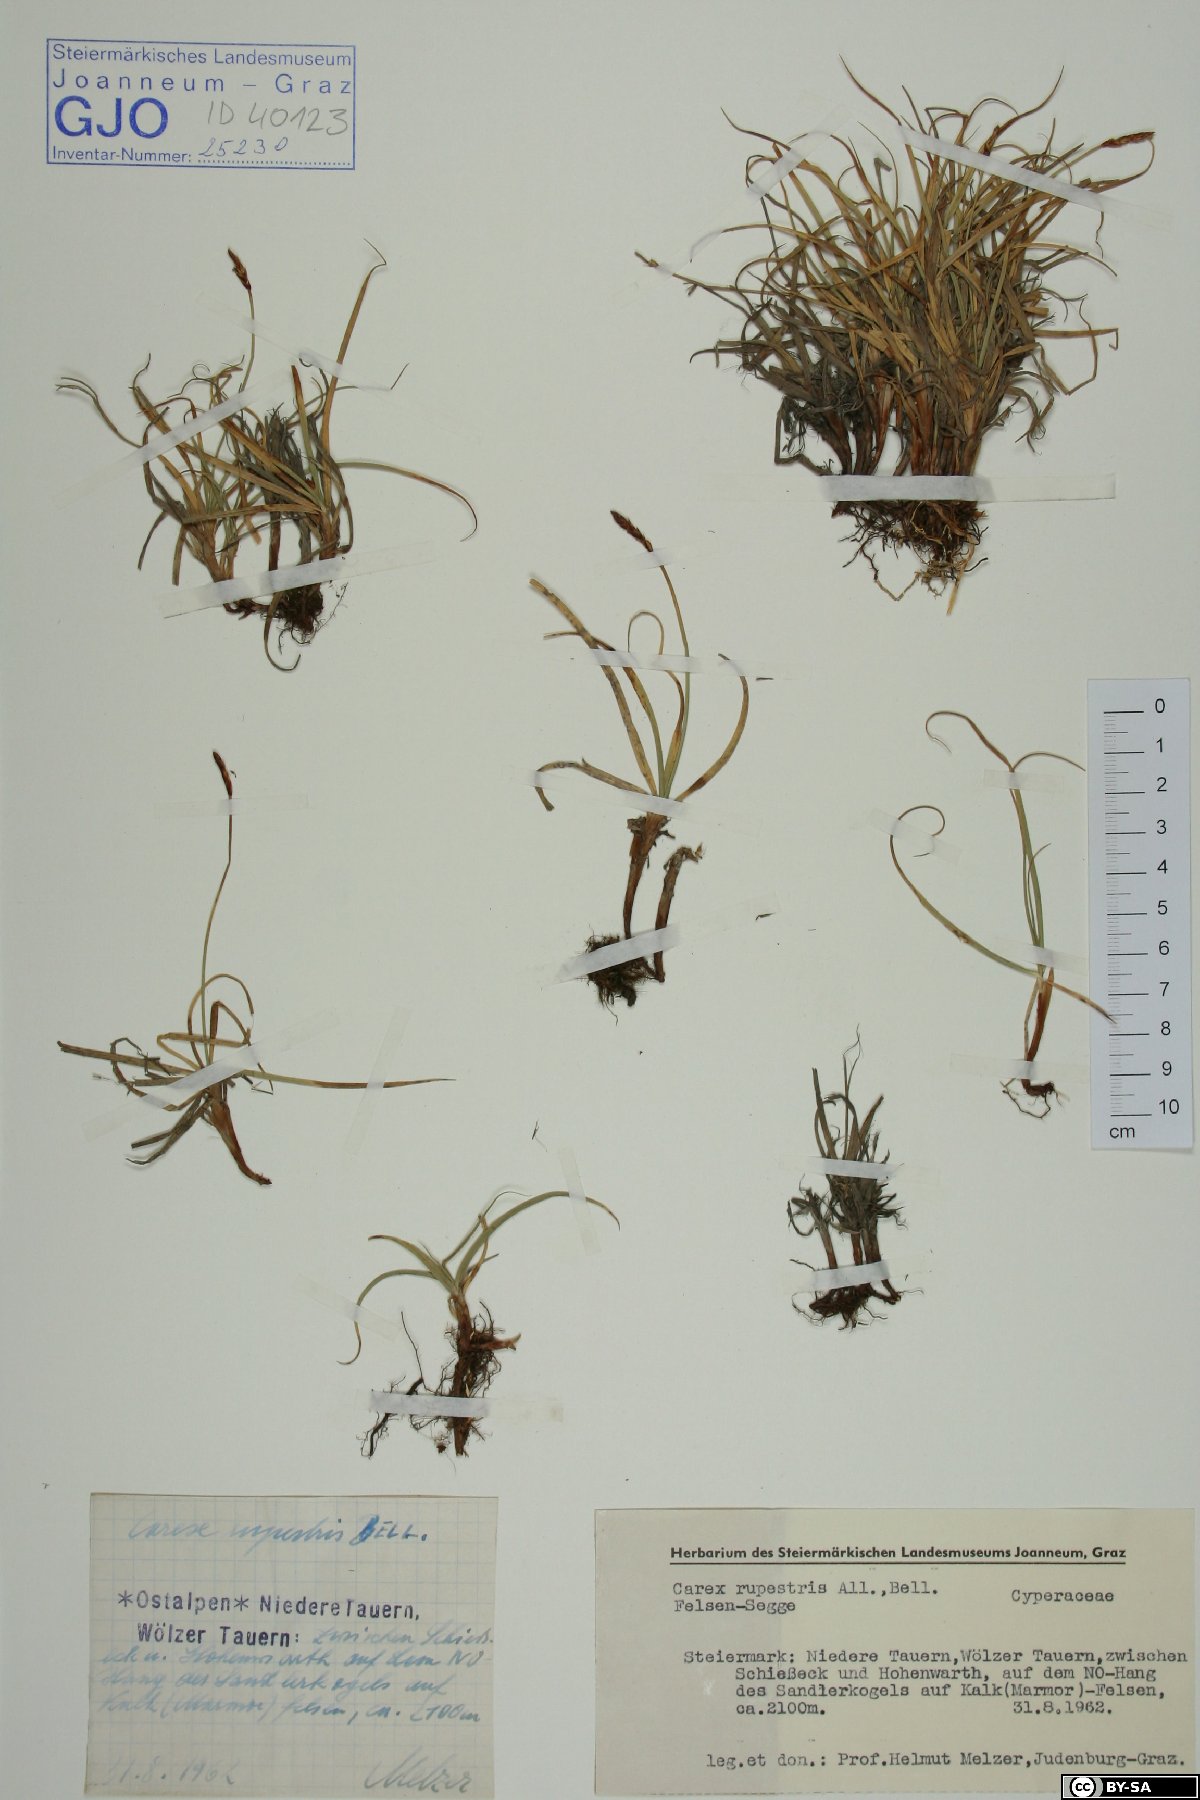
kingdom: Plantae
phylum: Tracheophyta
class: Liliopsida
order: Poales
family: Cyperaceae
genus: Carex
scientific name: Carex rupestris
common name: Rock sedge
